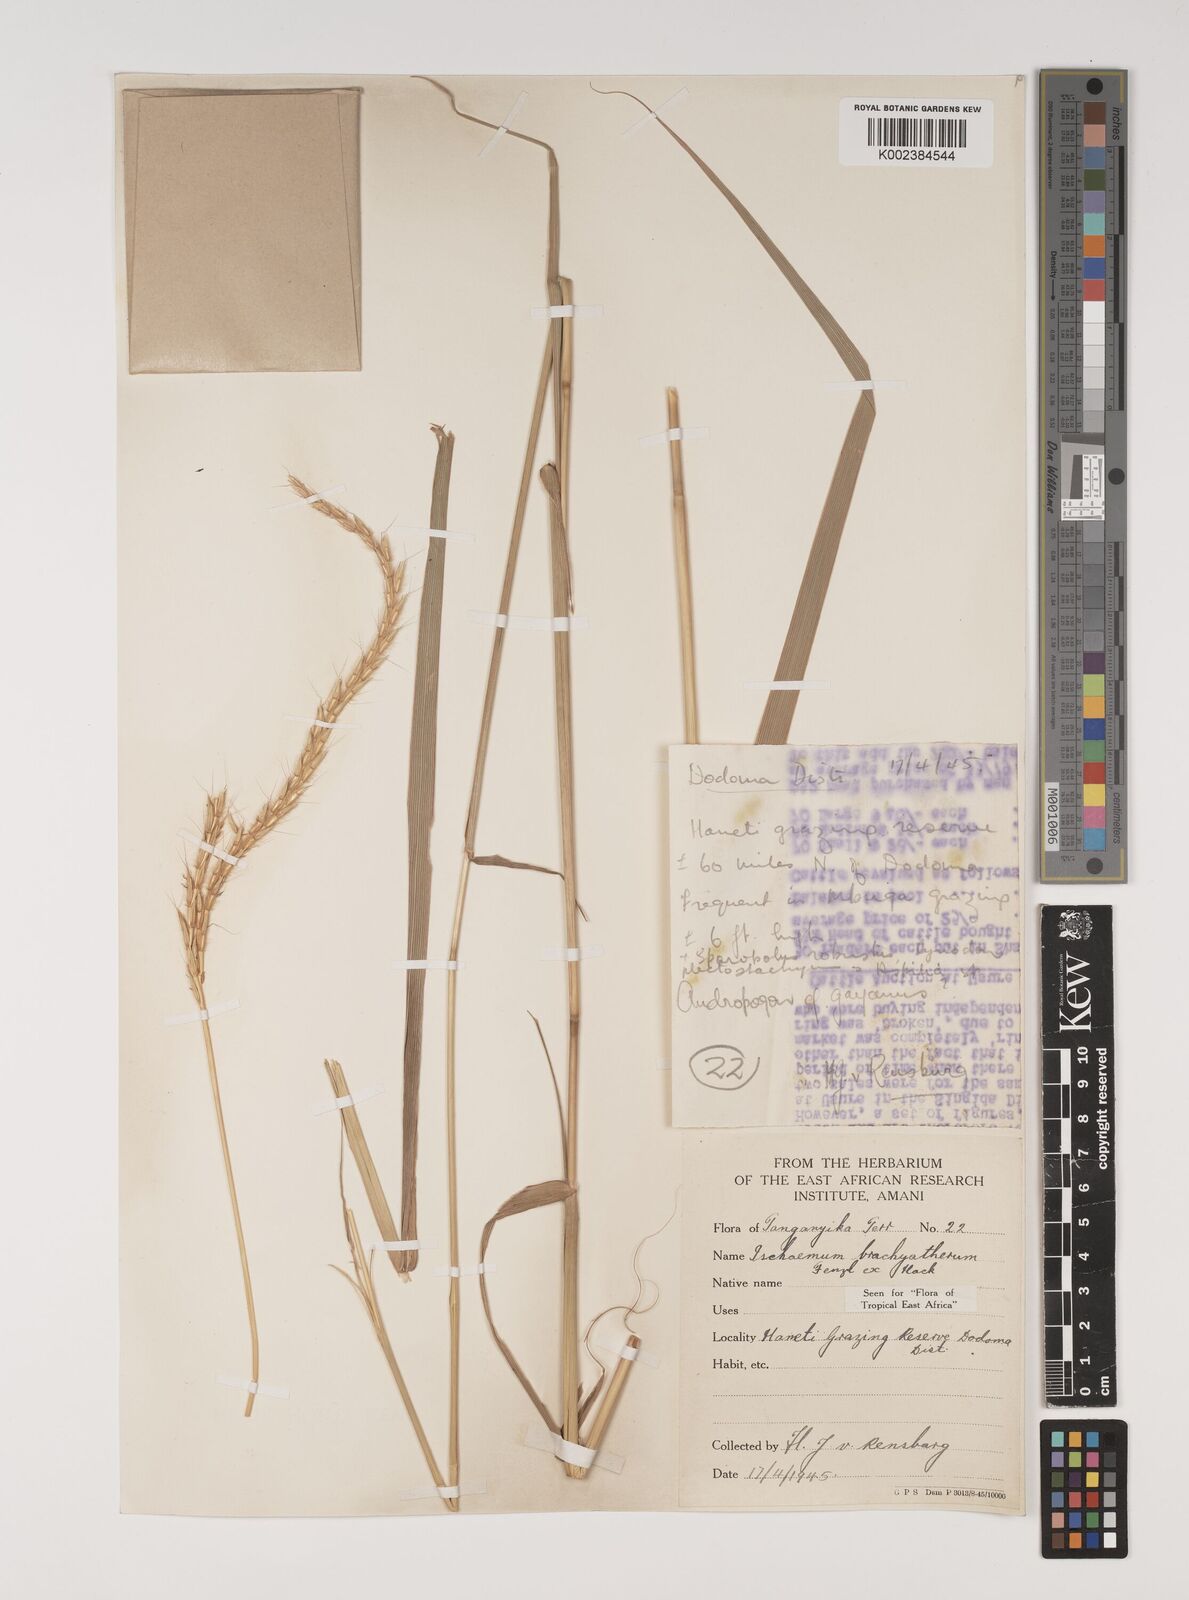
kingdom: Plantae
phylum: Tracheophyta
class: Liliopsida
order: Poales
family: Poaceae
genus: Ischaemum
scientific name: Ischaemum afrum
